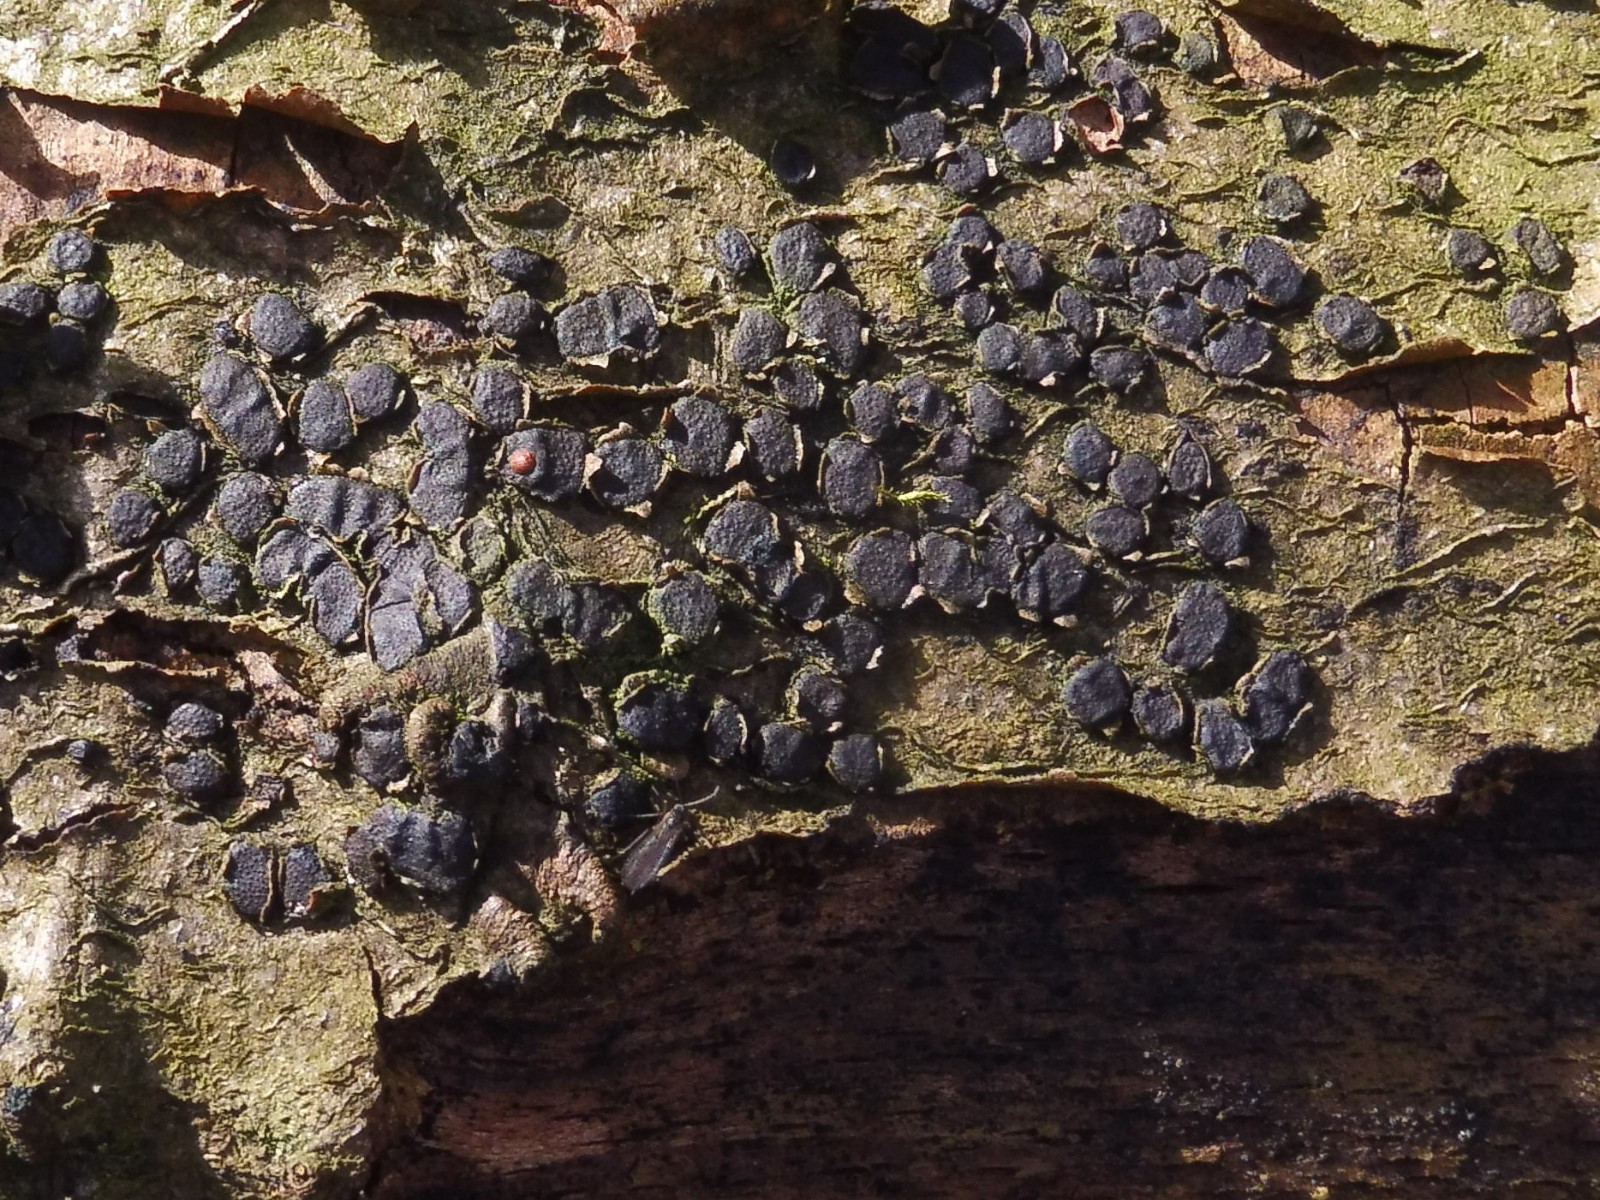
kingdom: Fungi
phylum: Ascomycota
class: Sordariomycetes
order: Xylariales
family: Diatrypaceae
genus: Diatrype
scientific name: Diatrype disciformis
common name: kant-kulskorpe
